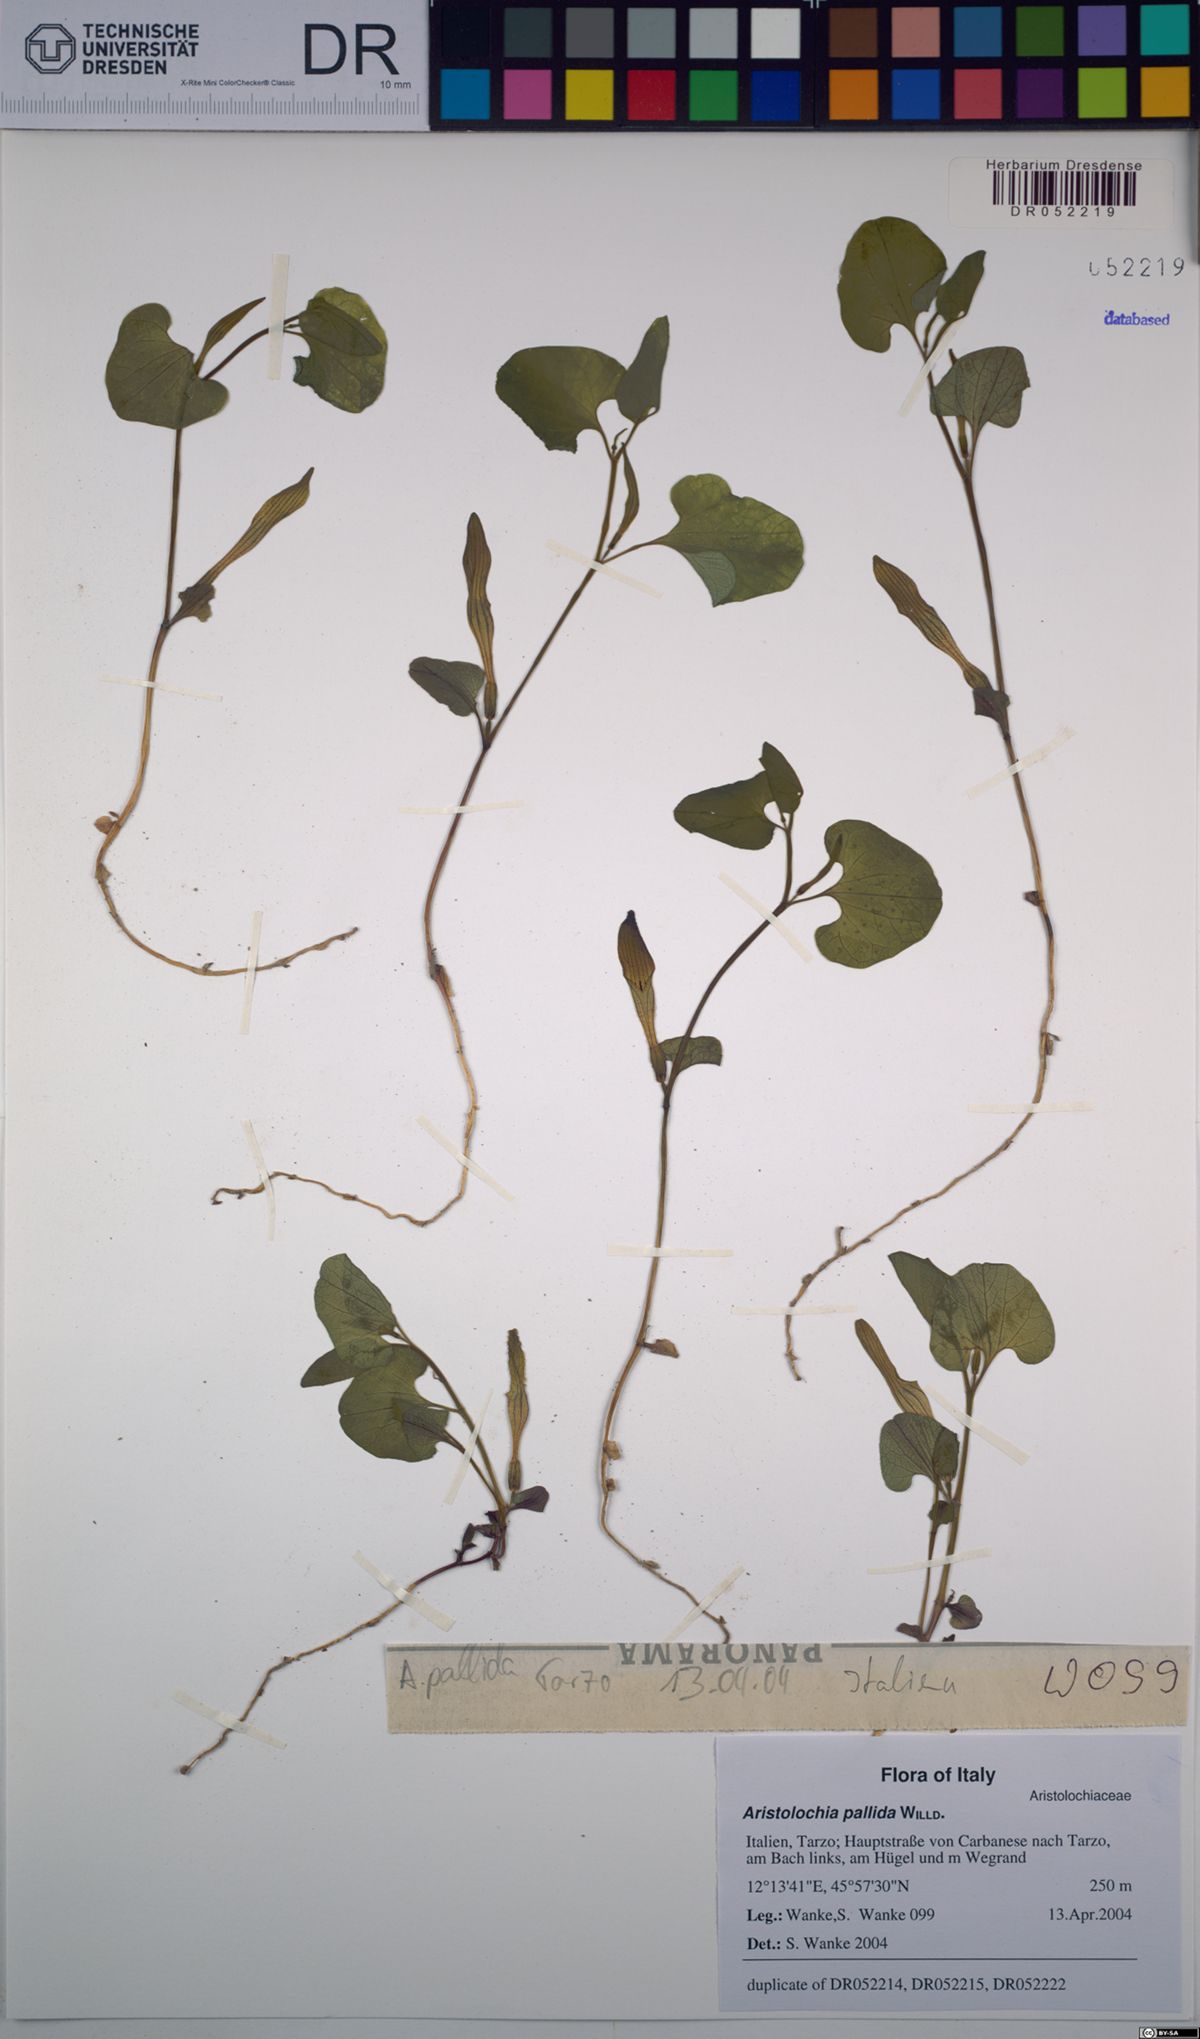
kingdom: Plantae
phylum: Tracheophyta
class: Magnoliopsida
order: Piperales
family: Aristolochiaceae
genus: Aristolochia
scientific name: Aristolochia pallida
